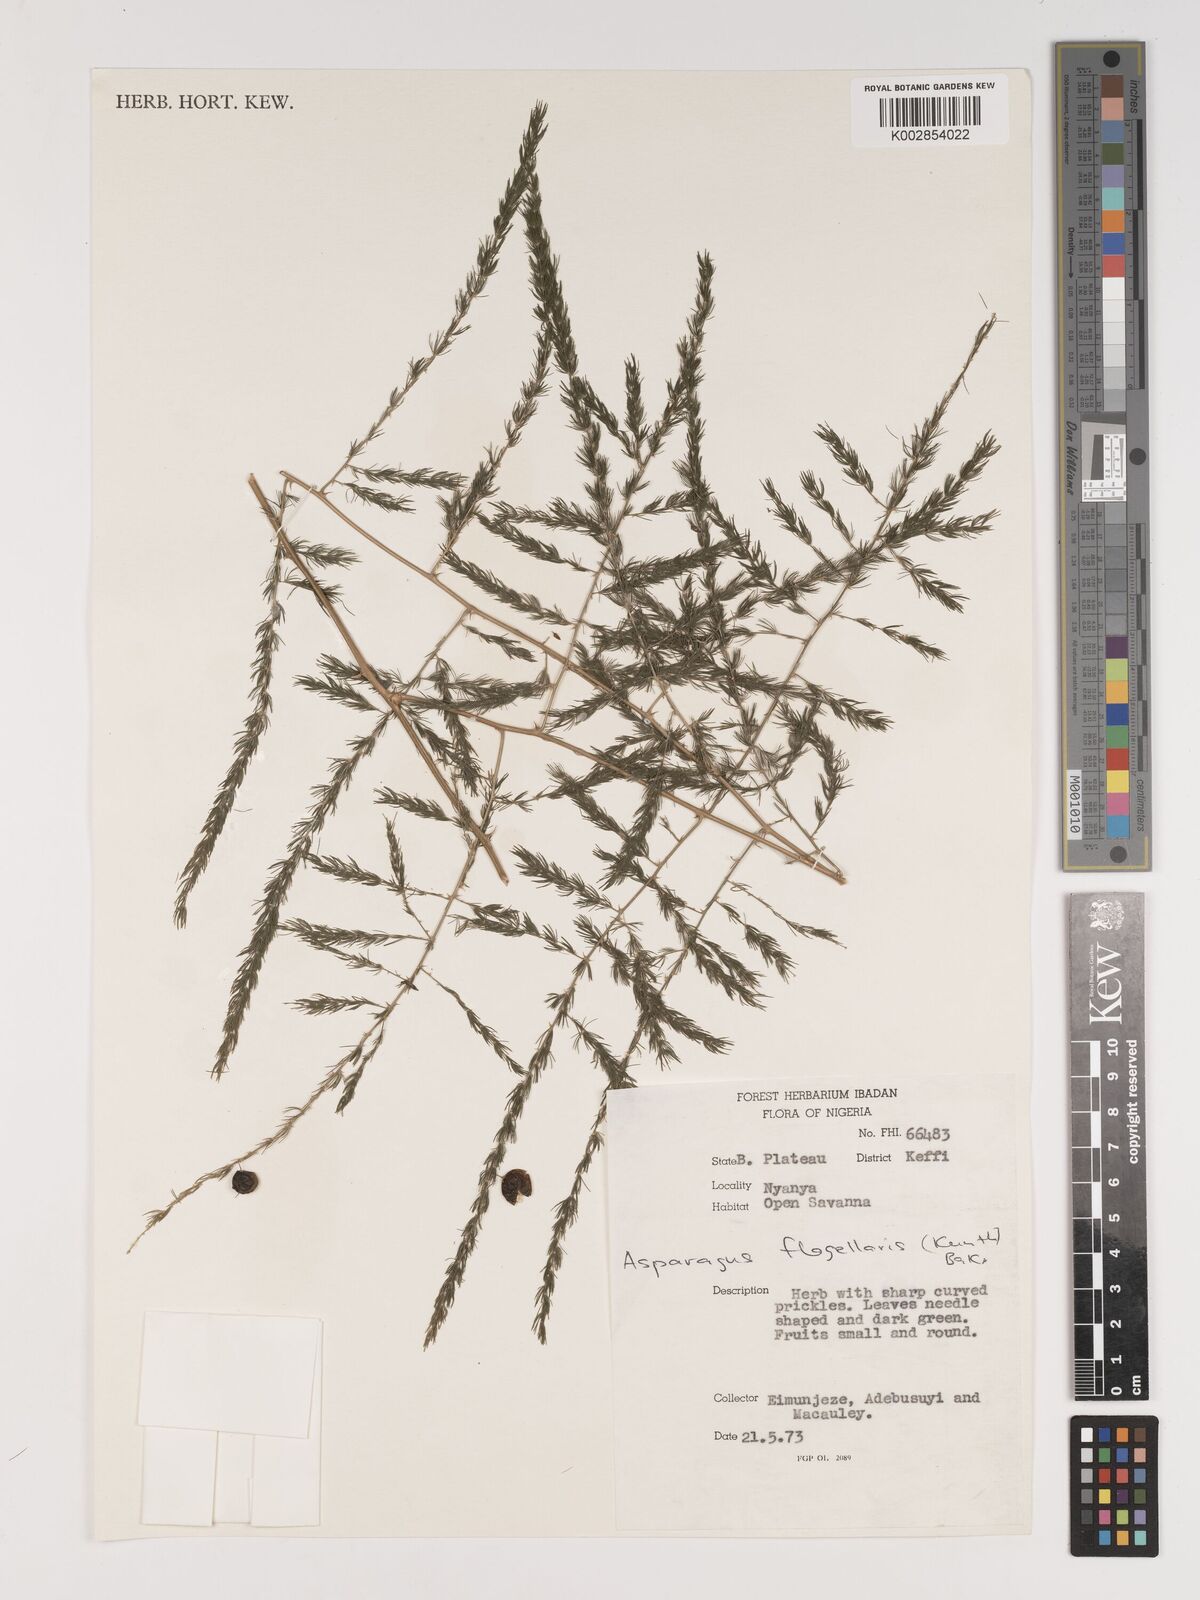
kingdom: Plantae
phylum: Tracheophyta
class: Liliopsida
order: Asparagales
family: Asparagaceae
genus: Asparagus
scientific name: Asparagus flagellaris
